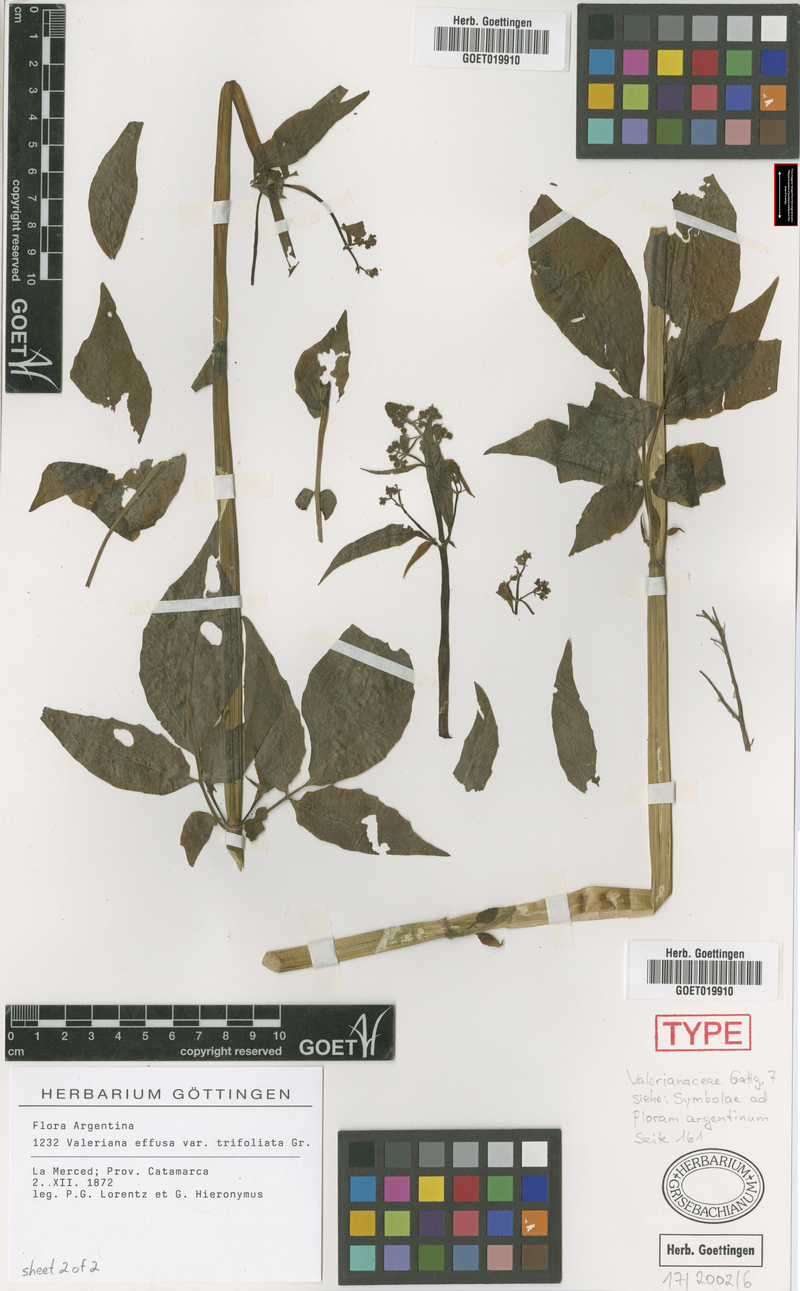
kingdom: Plantae
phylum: Tracheophyta
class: Magnoliopsida
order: Dipsacales
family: Caprifoliaceae
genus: Valeriana
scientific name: Valeriana effusa
